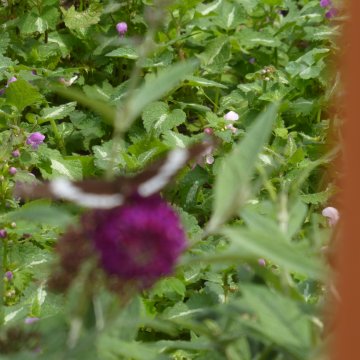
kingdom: Animalia
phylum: Arthropoda
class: Insecta
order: Lepidoptera
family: Nymphalidae
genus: Limenitis
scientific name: Limenitis arthemis
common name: Red-spotted Admiral
